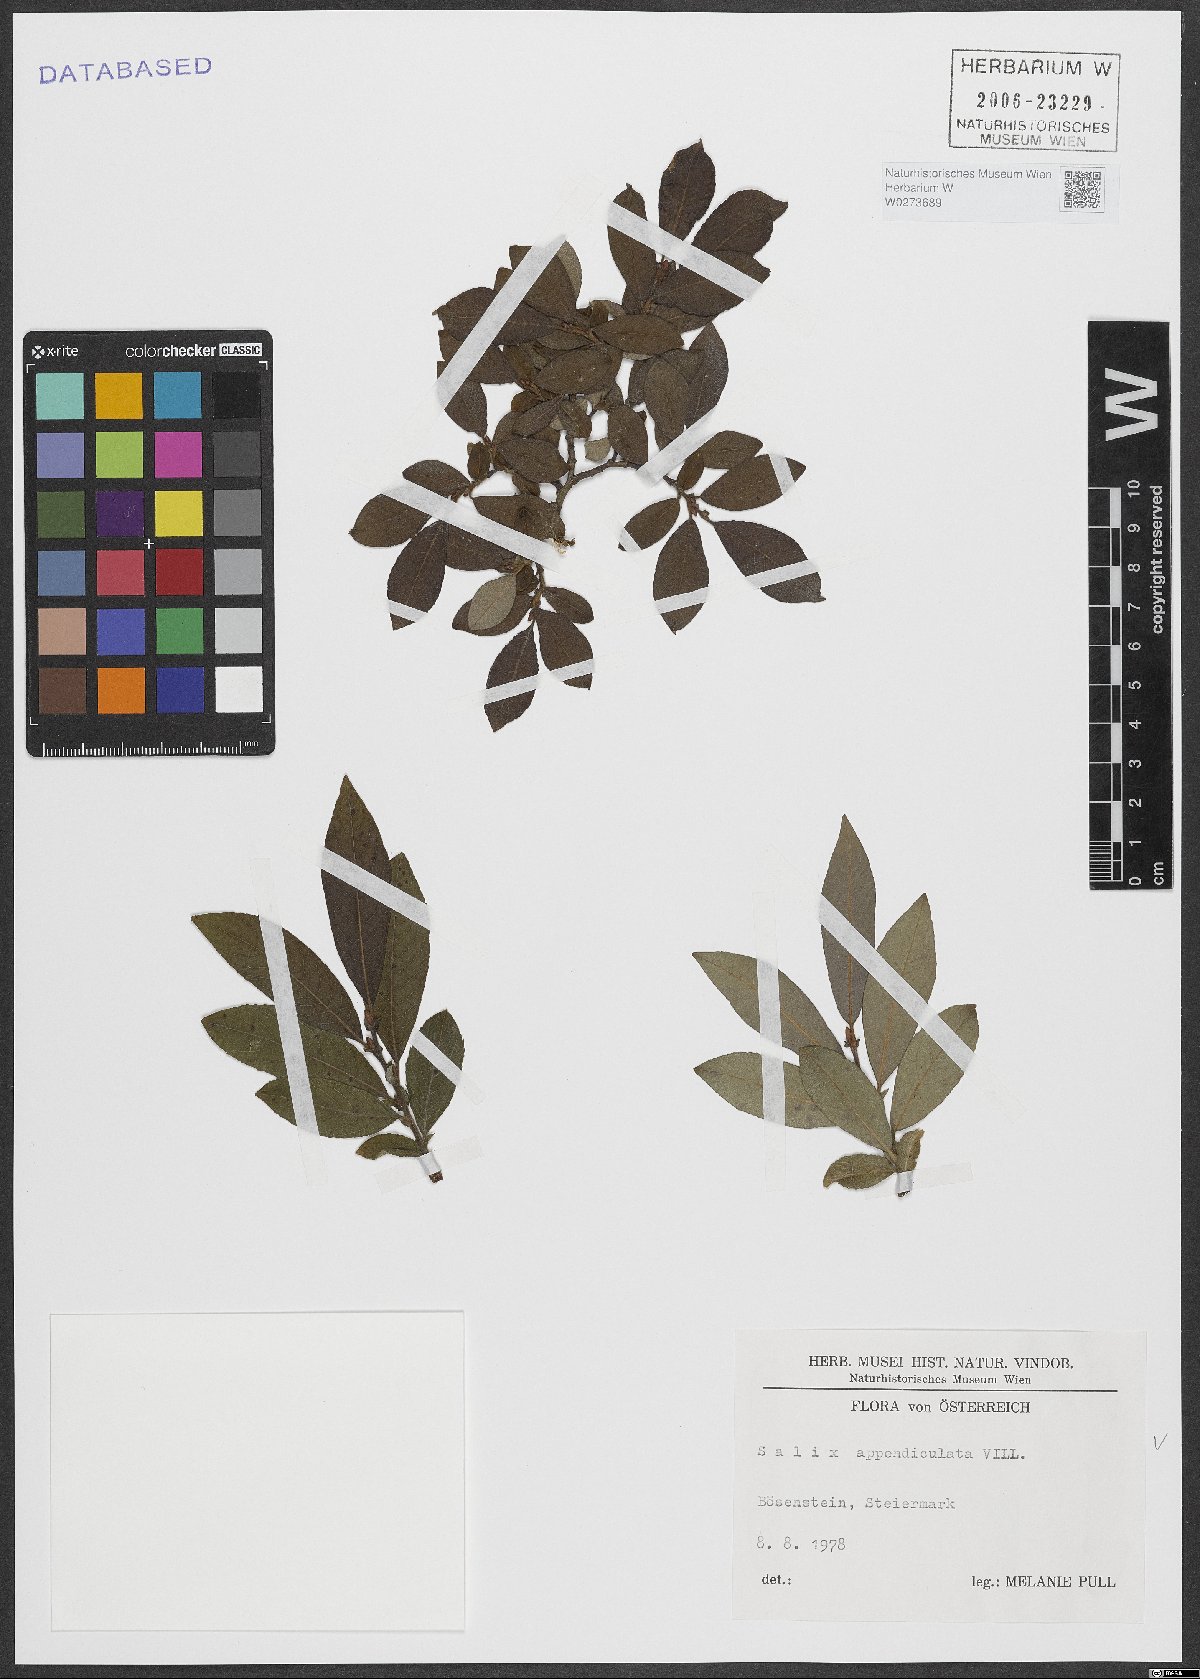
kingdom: Plantae
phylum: Tracheophyta
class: Magnoliopsida
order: Malpighiales
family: Salicaceae
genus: Salix
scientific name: Salix appendiculata
